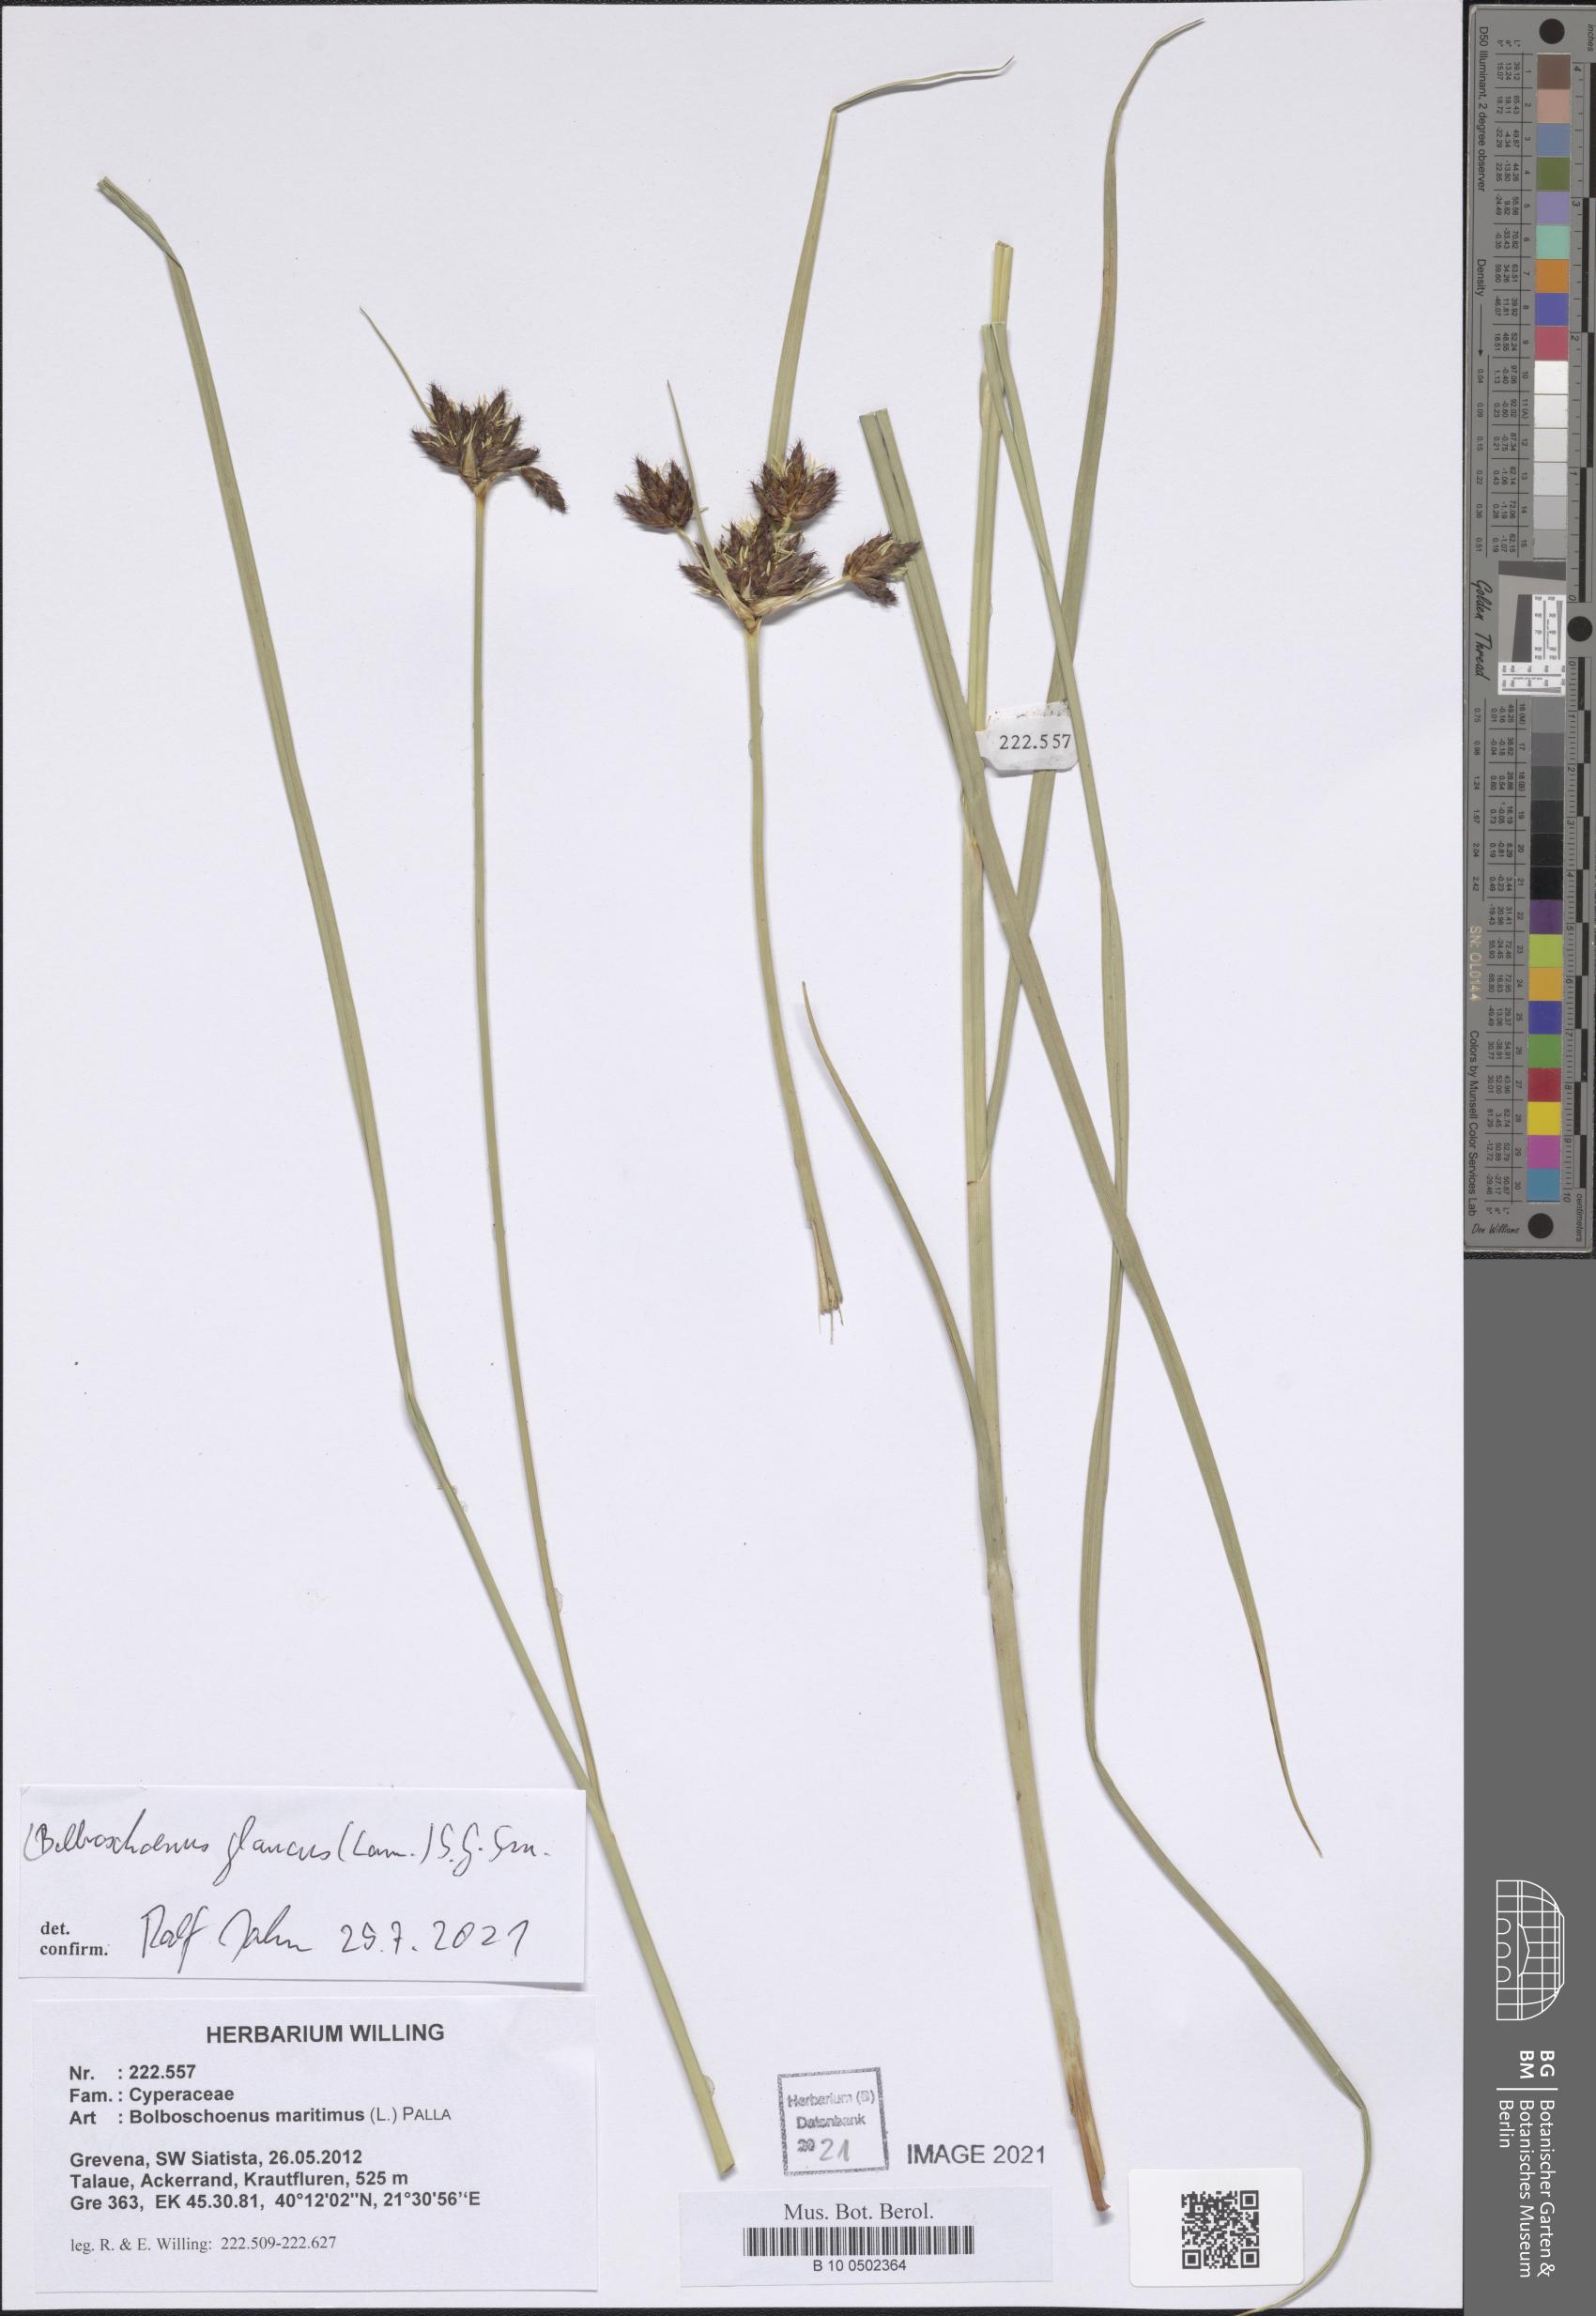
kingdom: Plantae
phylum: Tracheophyta
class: Liliopsida
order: Poales
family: Cyperaceae
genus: Bolboschoenus
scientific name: Bolboschoenus glaucus
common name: Tuberous bulrush
